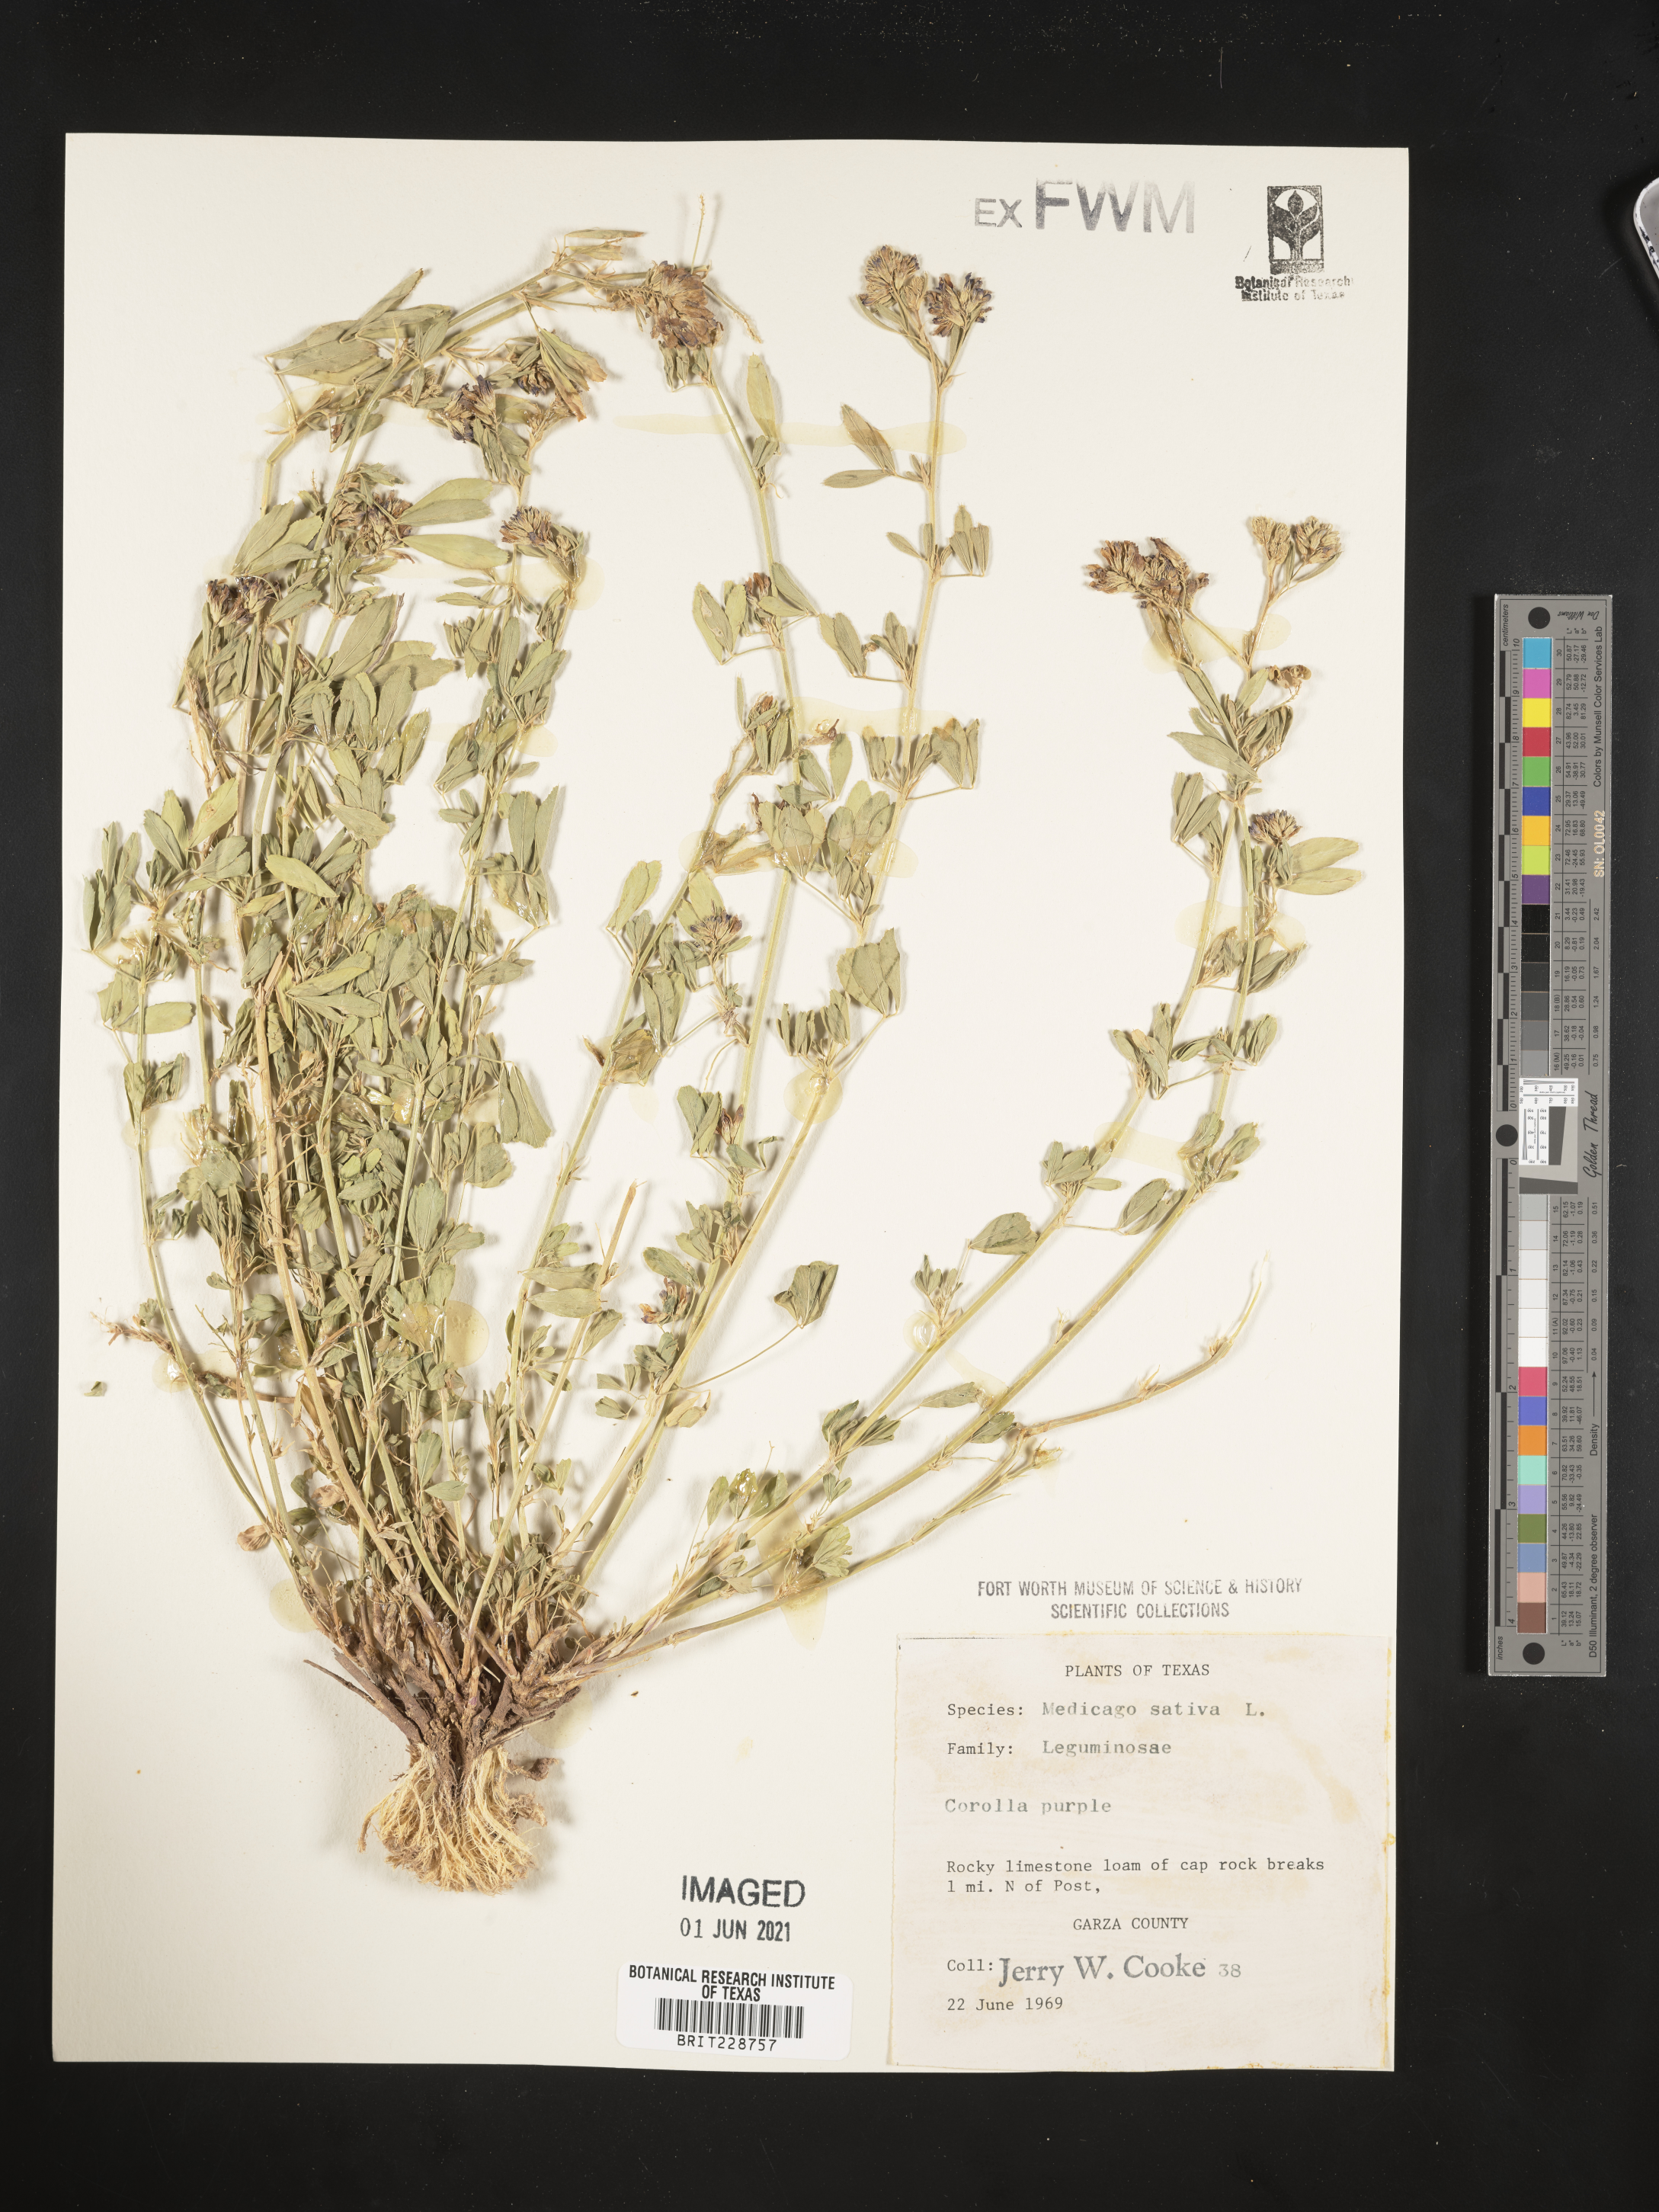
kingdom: Plantae
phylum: Tracheophyta
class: Magnoliopsida
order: Fabales
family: Fabaceae
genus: Medicago
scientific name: Medicago sativa
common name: Alfalfa
